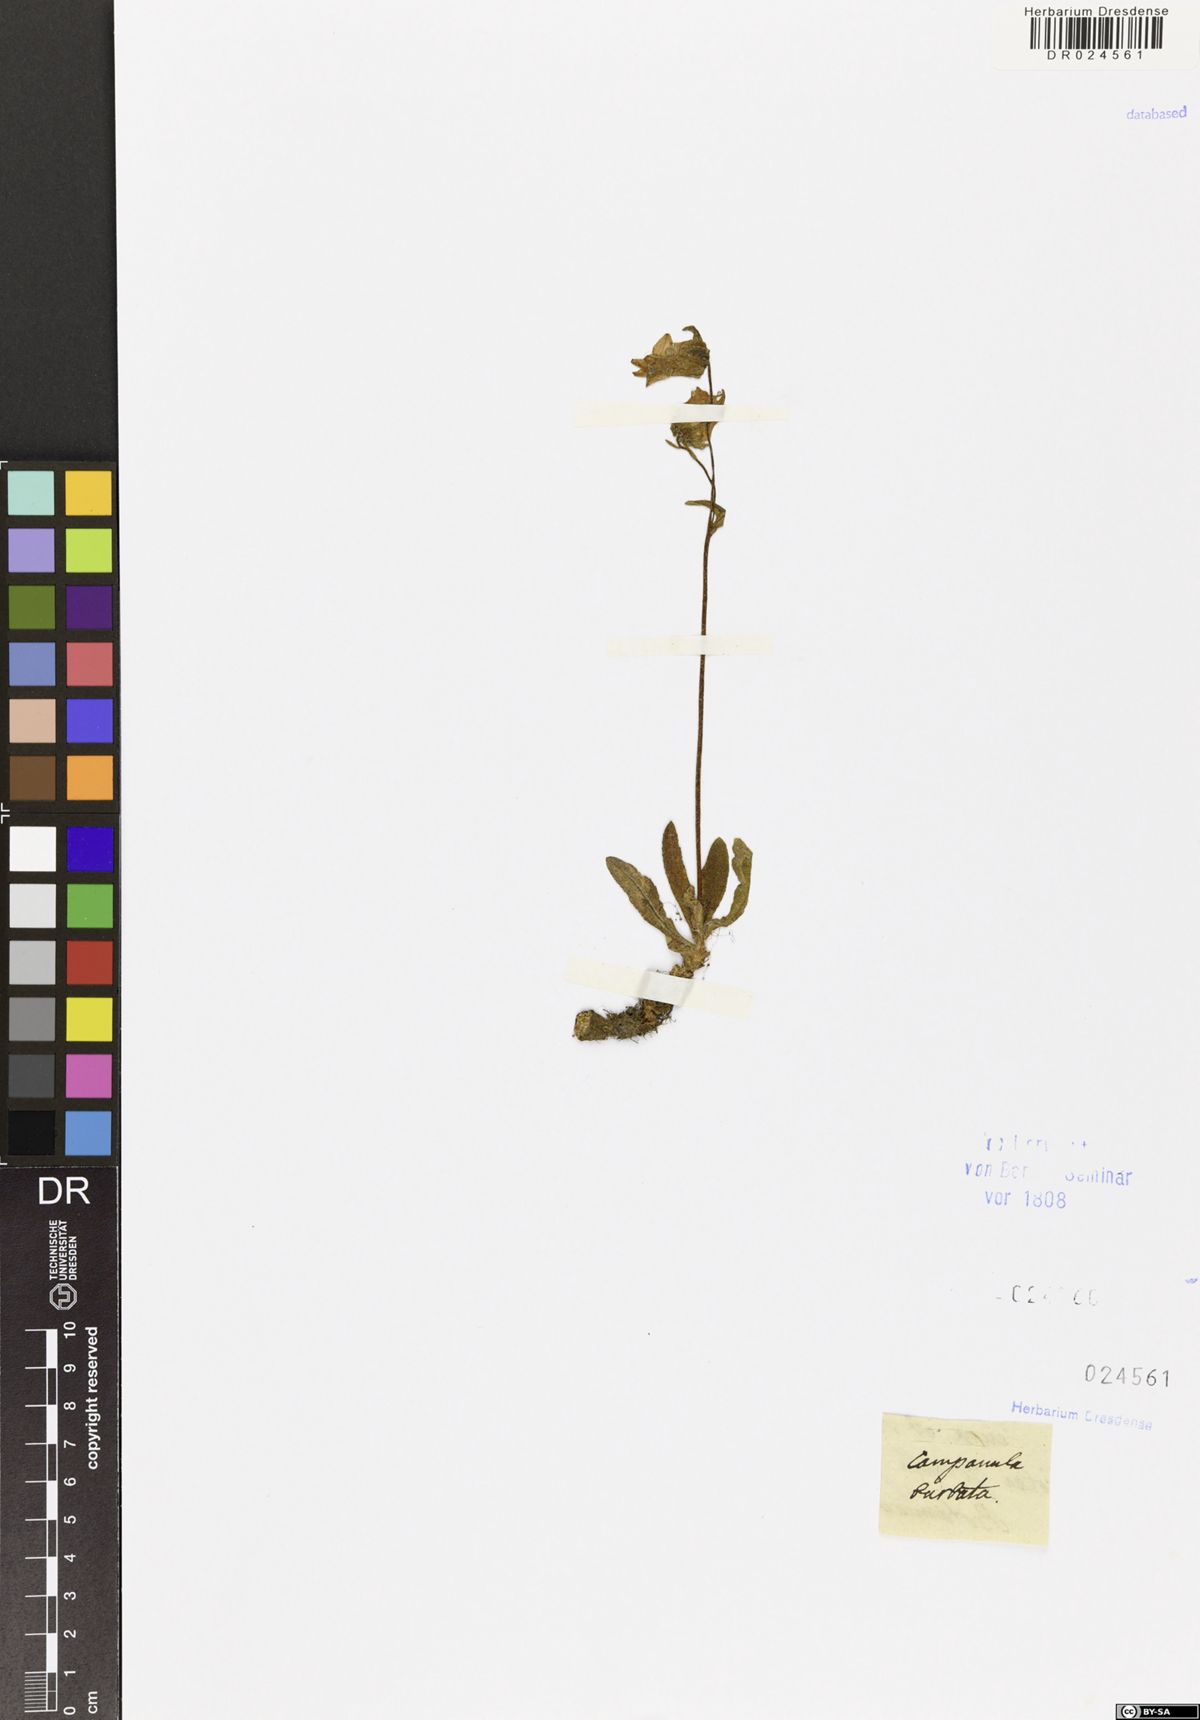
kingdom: Plantae
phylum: Tracheophyta
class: Magnoliopsida
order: Asterales
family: Campanulaceae
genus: Campanula
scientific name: Campanula barbata
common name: Bearded bellflower
